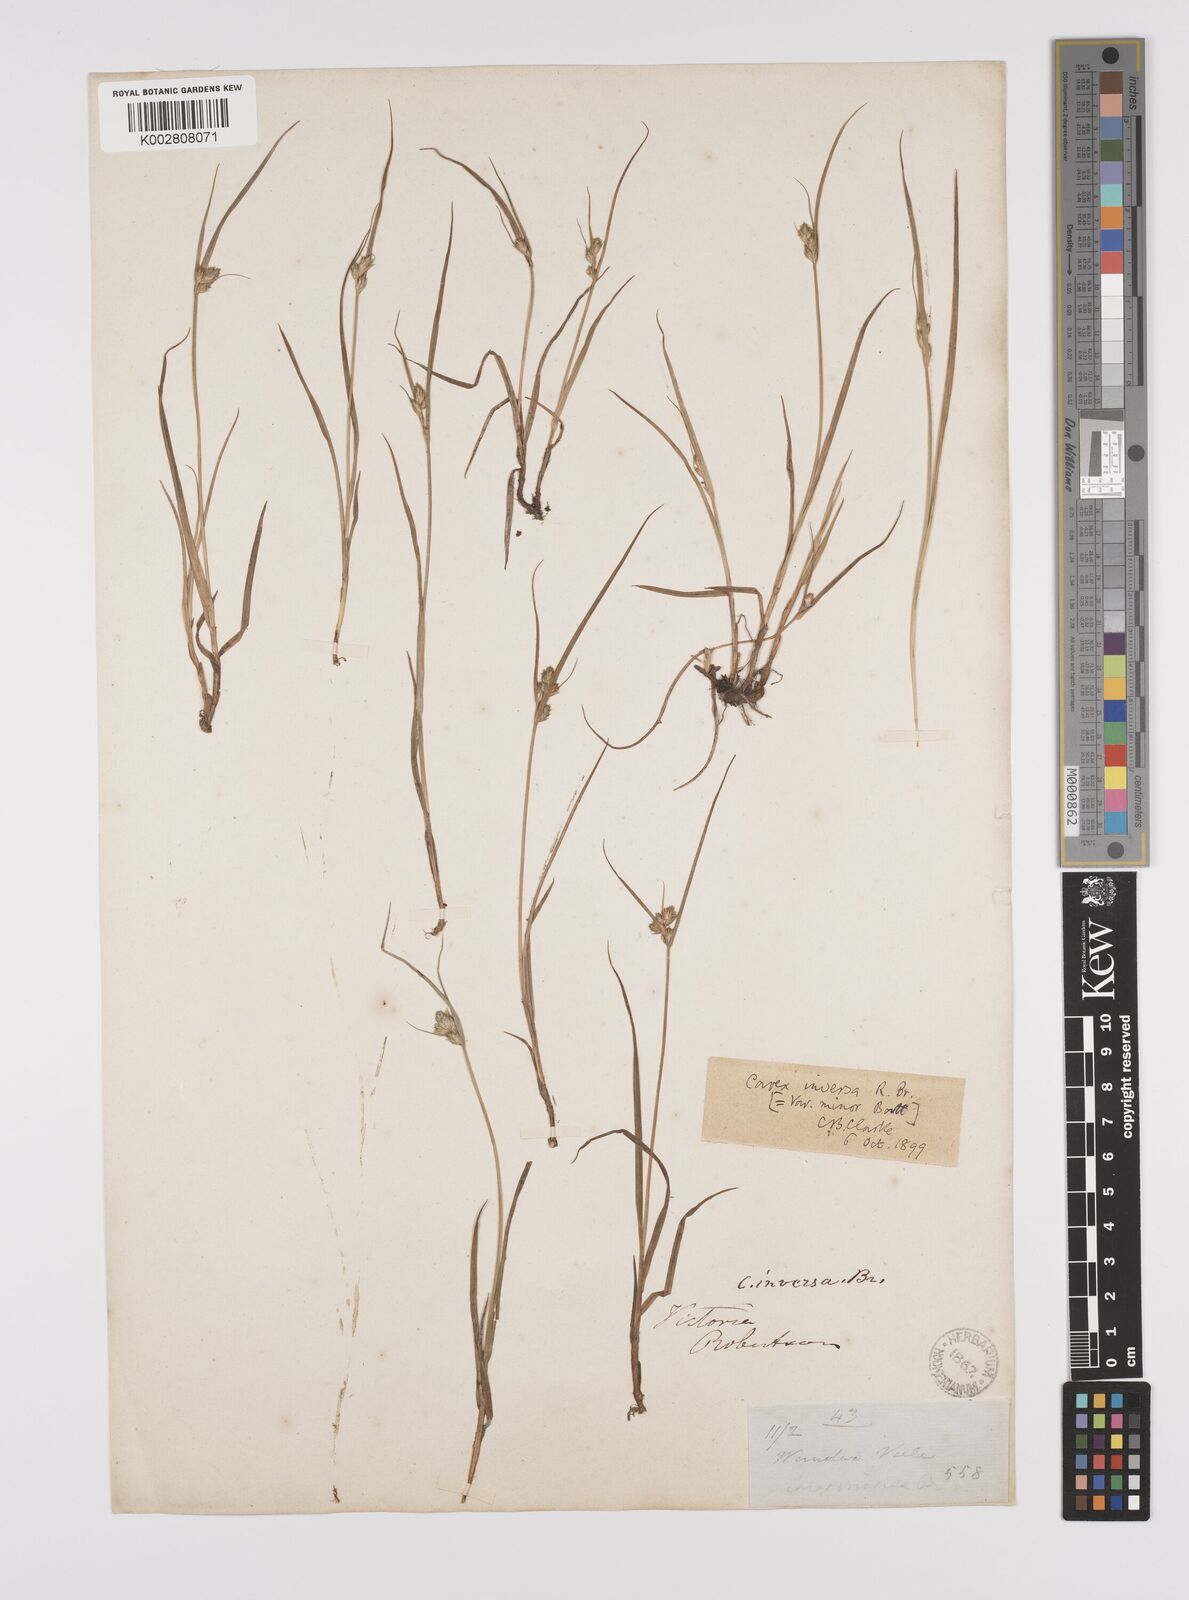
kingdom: Plantae
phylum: Tracheophyta
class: Liliopsida
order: Poales
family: Cyperaceae
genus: Carex
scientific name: Carex inversa
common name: Knob sedge
